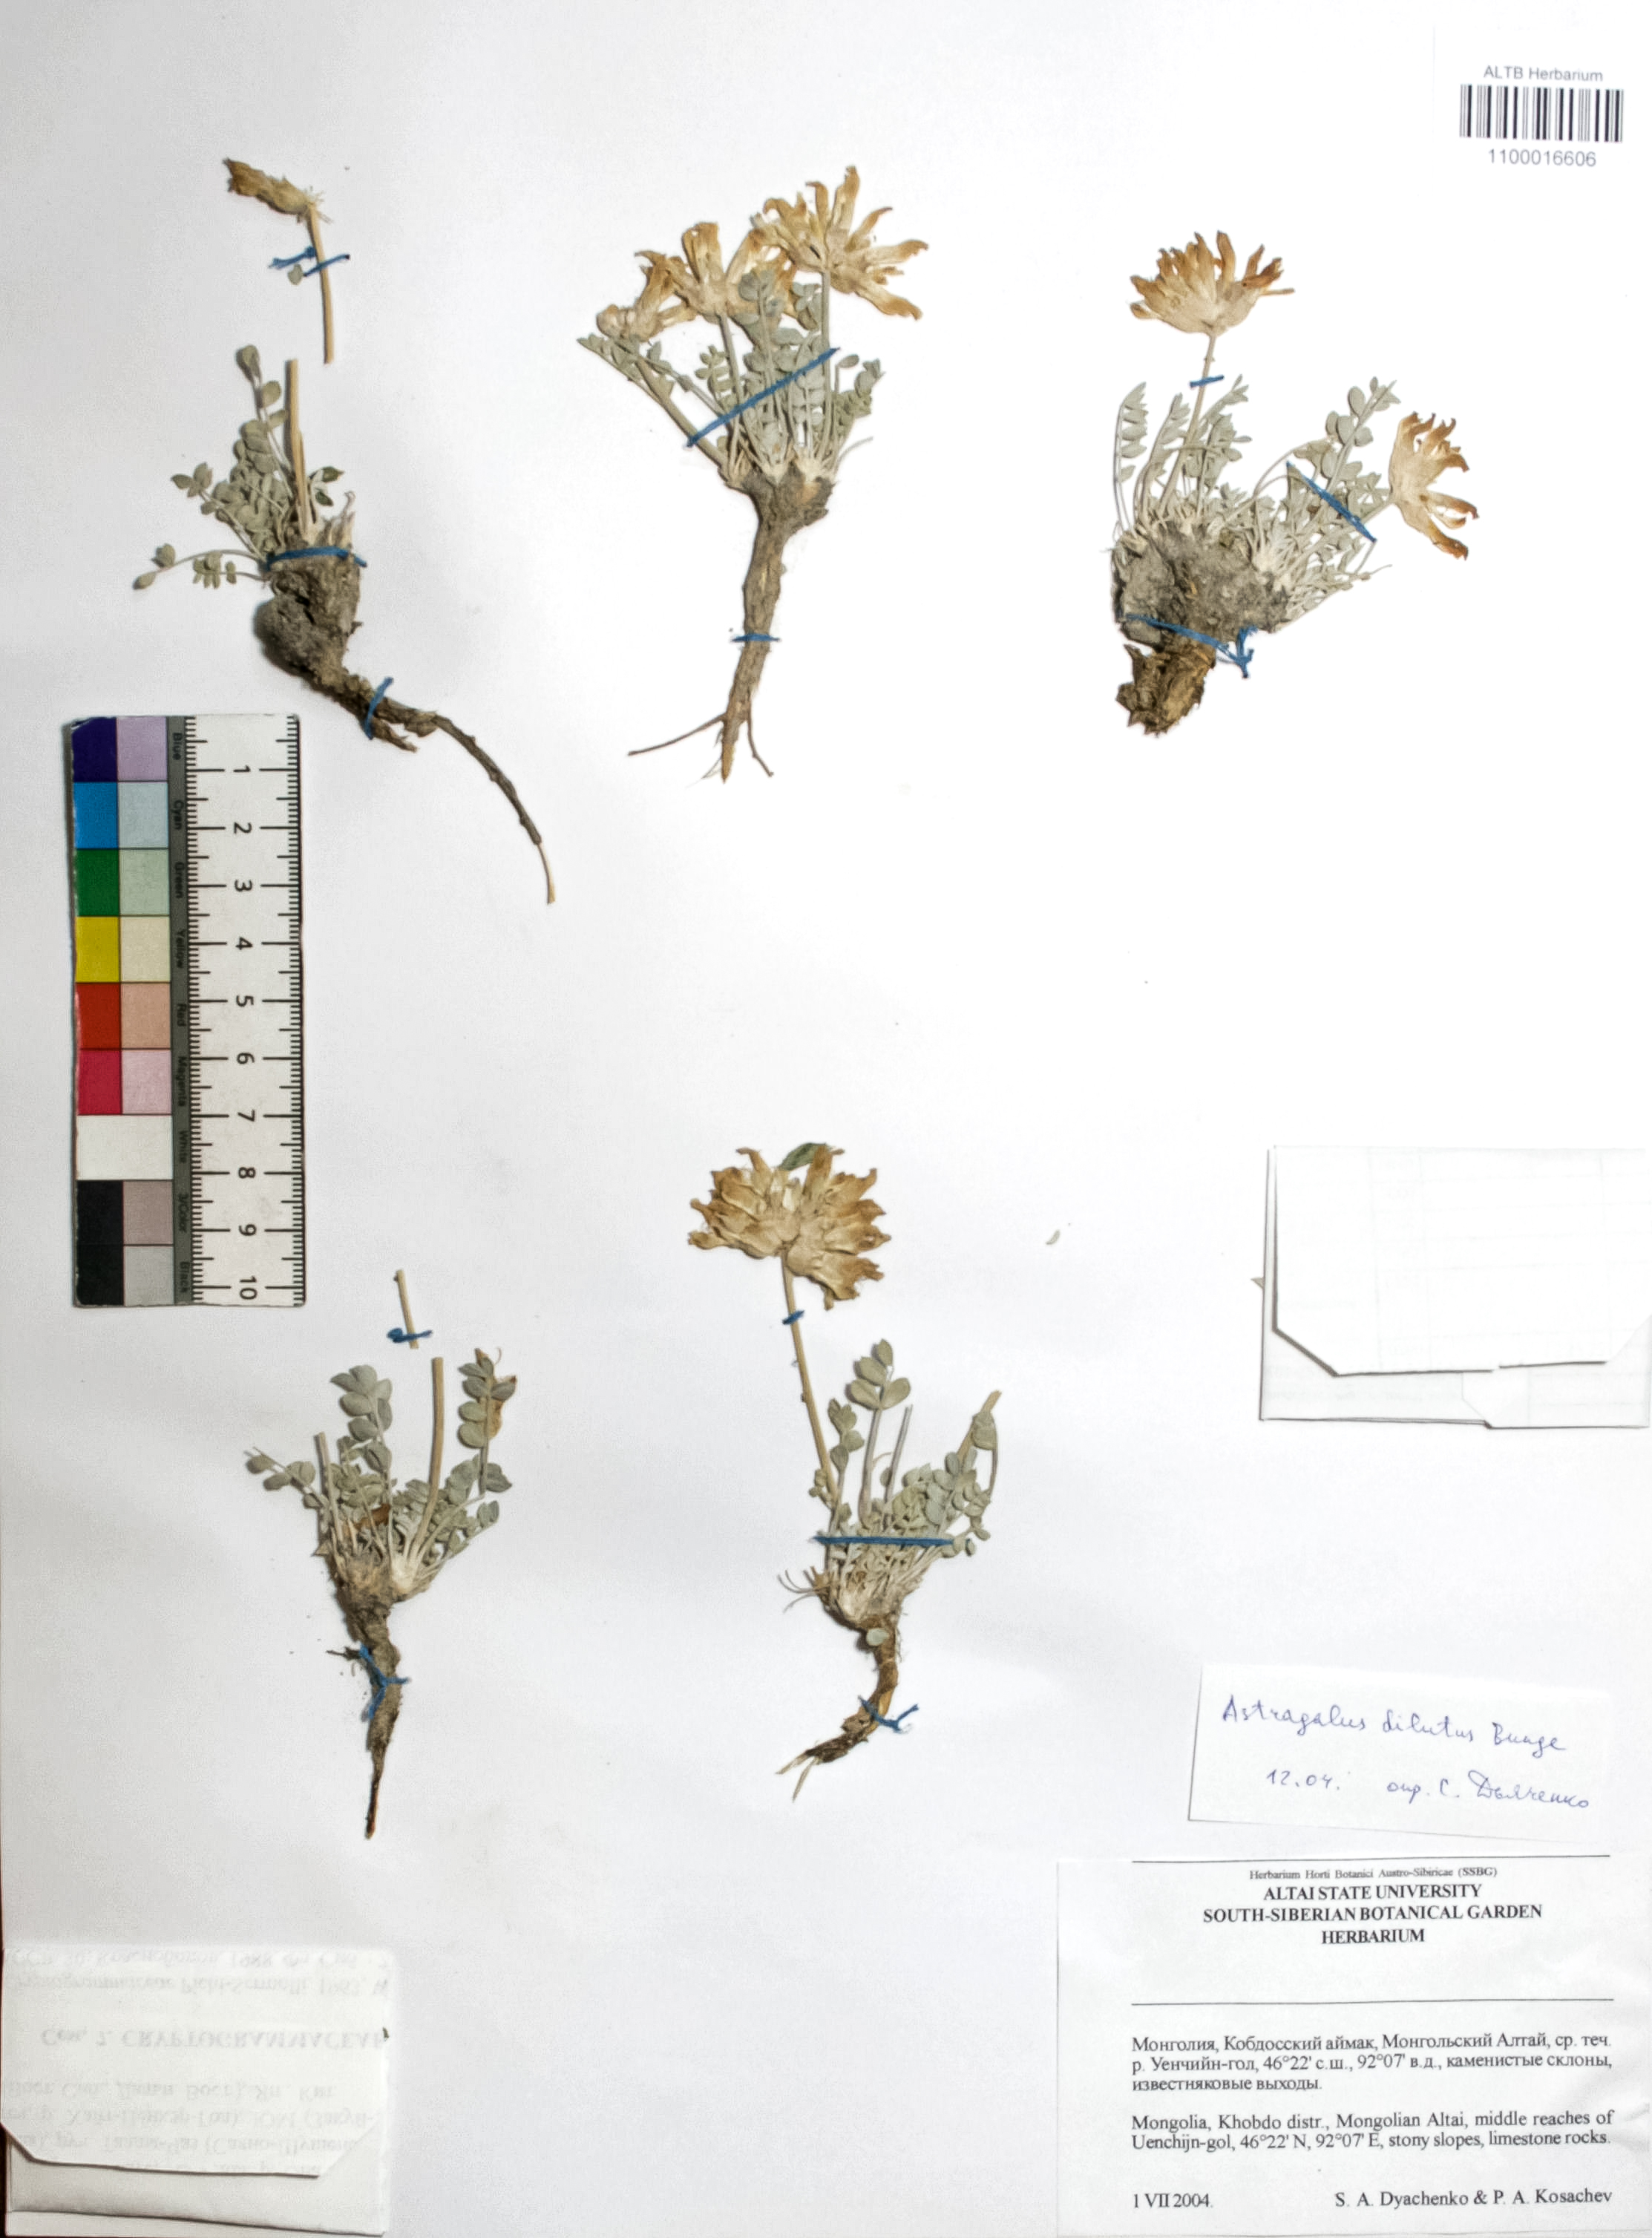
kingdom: Plantae
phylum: Tracheophyta
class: Magnoliopsida
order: Fabales
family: Fabaceae
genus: Astragalus
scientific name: Astragalus dilutus
